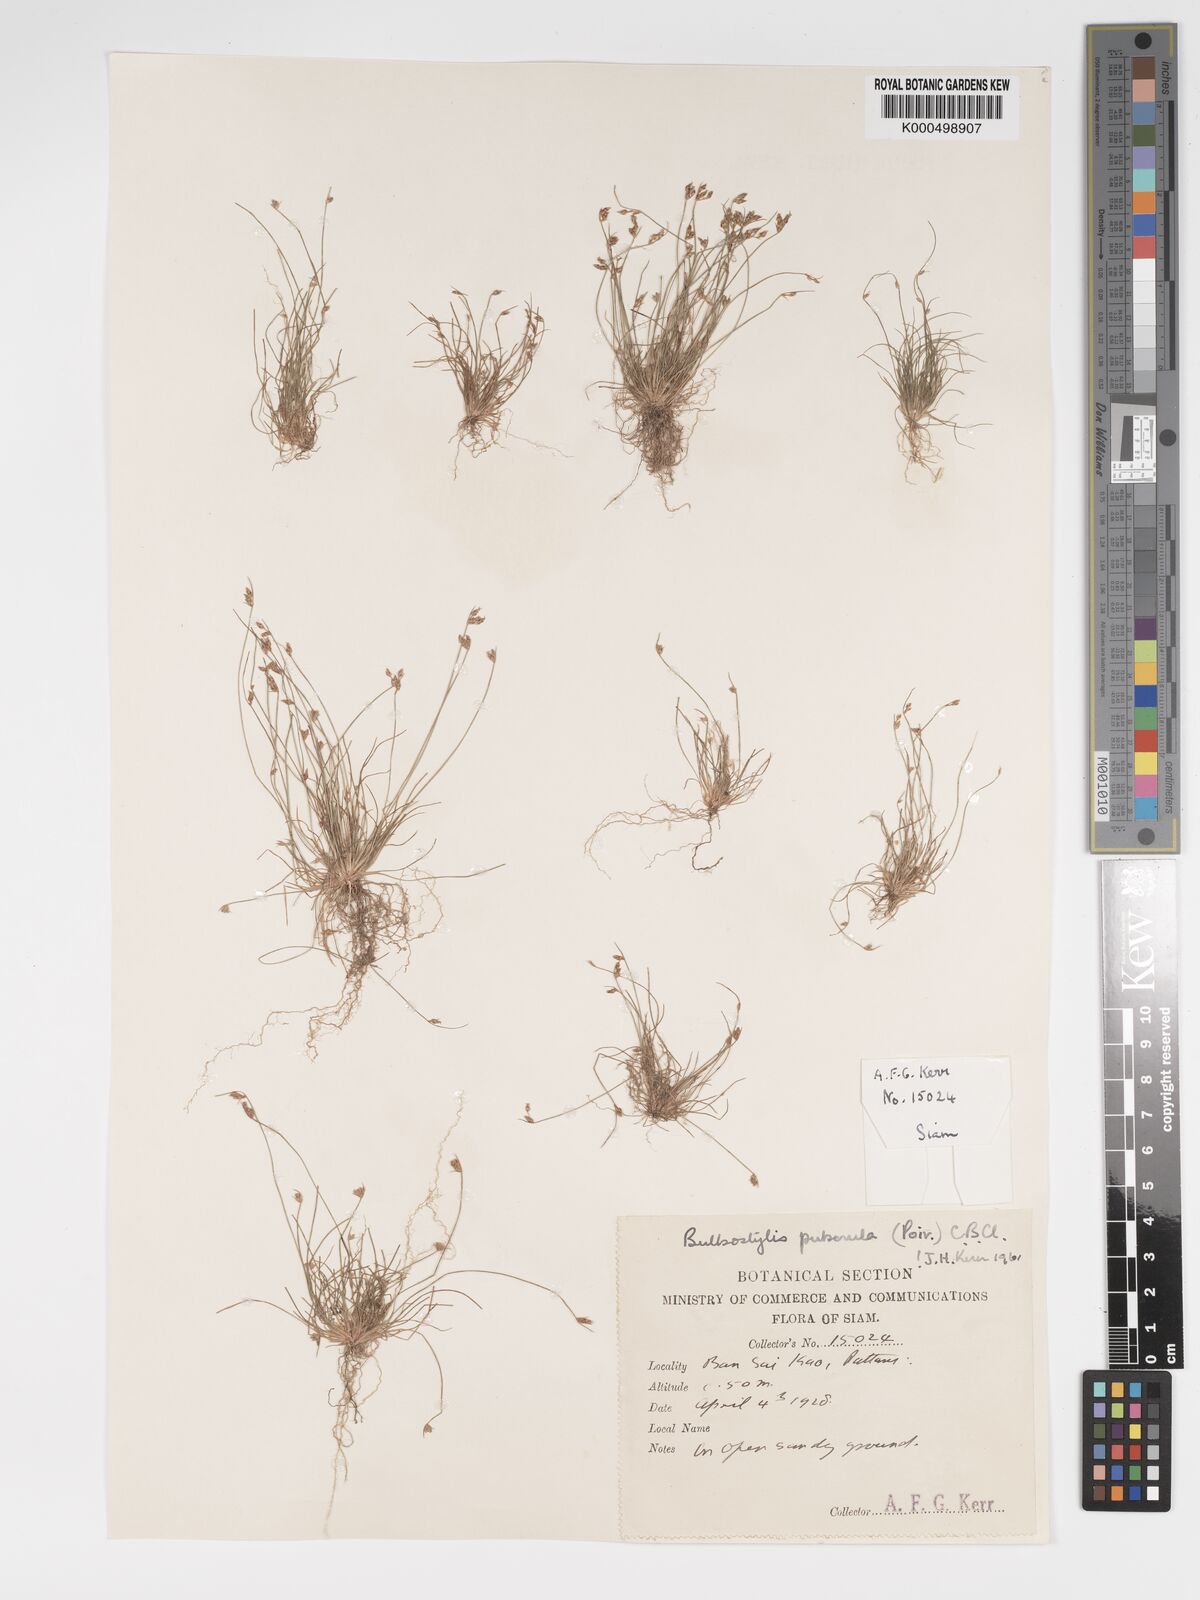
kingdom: Plantae
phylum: Tracheophyta
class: Liliopsida
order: Poales
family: Cyperaceae
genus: Bulbostylis
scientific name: Bulbostylis thouarsii
